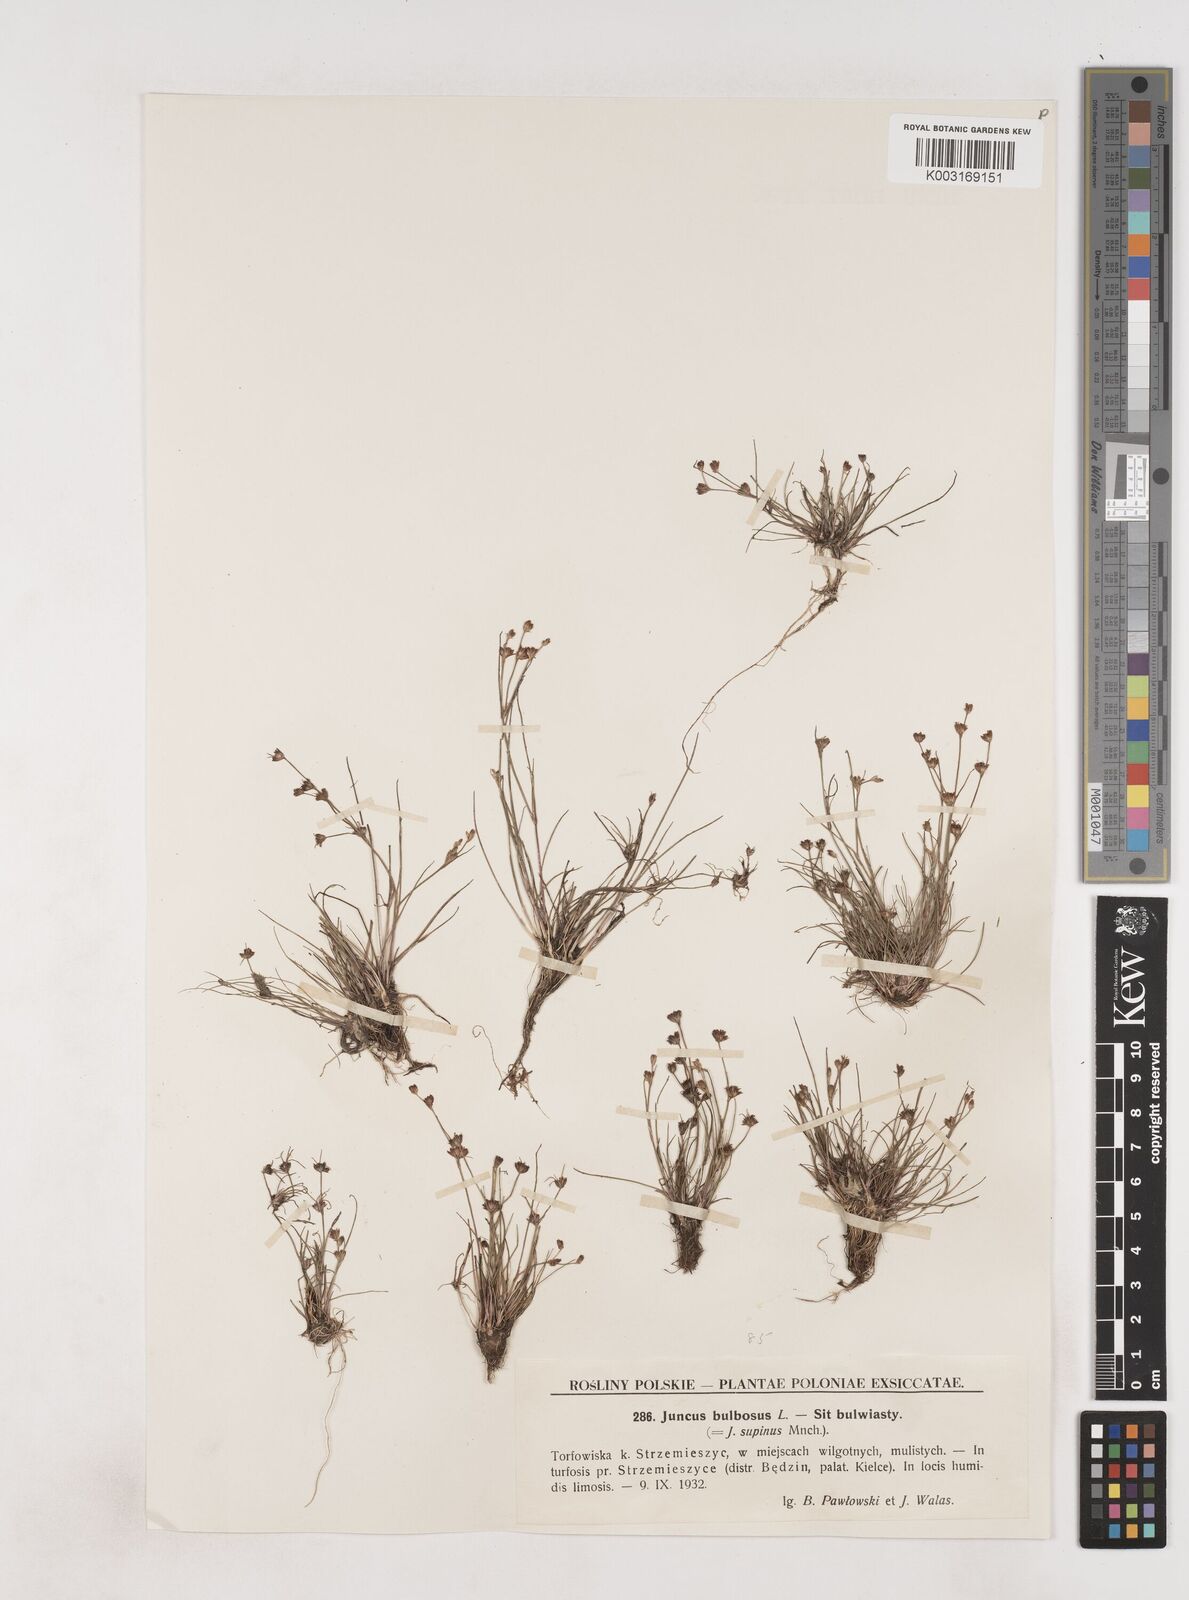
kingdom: Plantae
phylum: Tracheophyta
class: Liliopsida
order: Poales
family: Juncaceae
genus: Juncus
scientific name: Juncus bulbosus
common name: Bulbous rush
